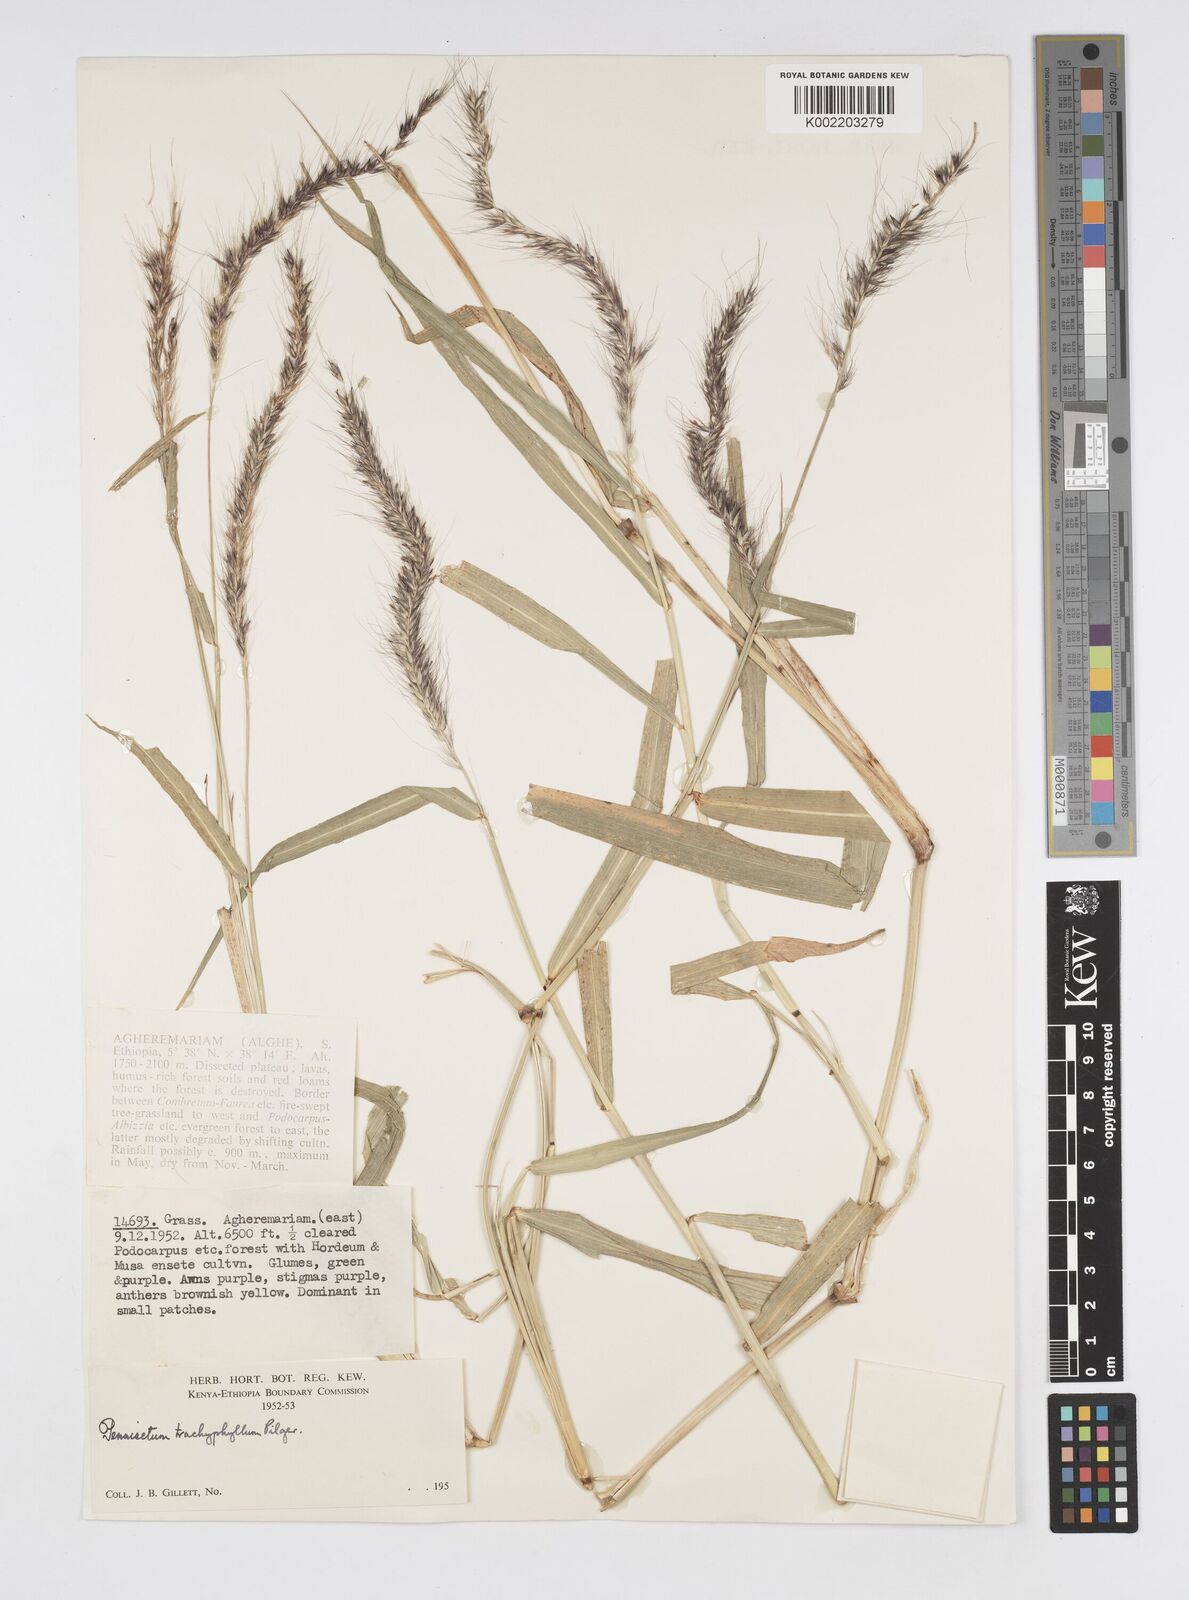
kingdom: Plantae
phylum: Tracheophyta
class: Liliopsida
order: Poales
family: Poaceae
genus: Cenchrus
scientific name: Cenchrus trachyphyllus
